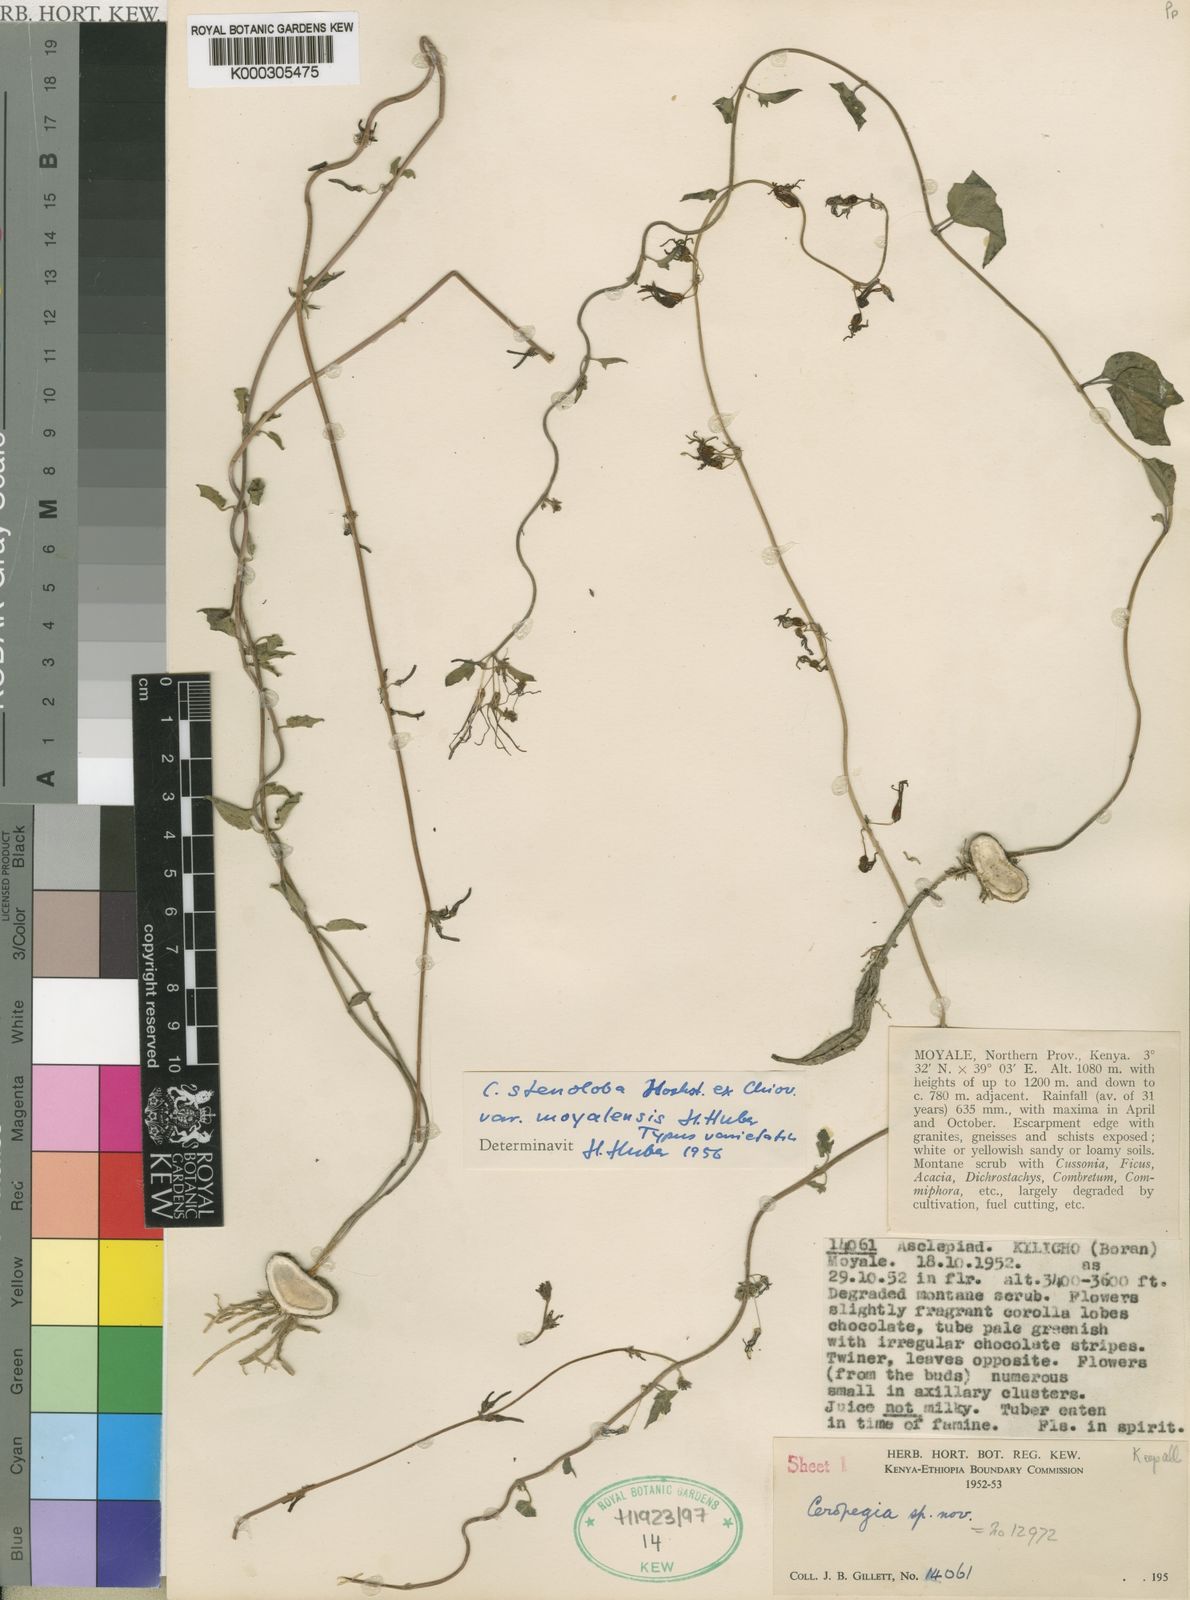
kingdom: Plantae
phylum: Tracheophyta
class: Magnoliopsida
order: Gentianales
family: Apocynaceae
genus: Ceropegia
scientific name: Ceropegia stenoloba
